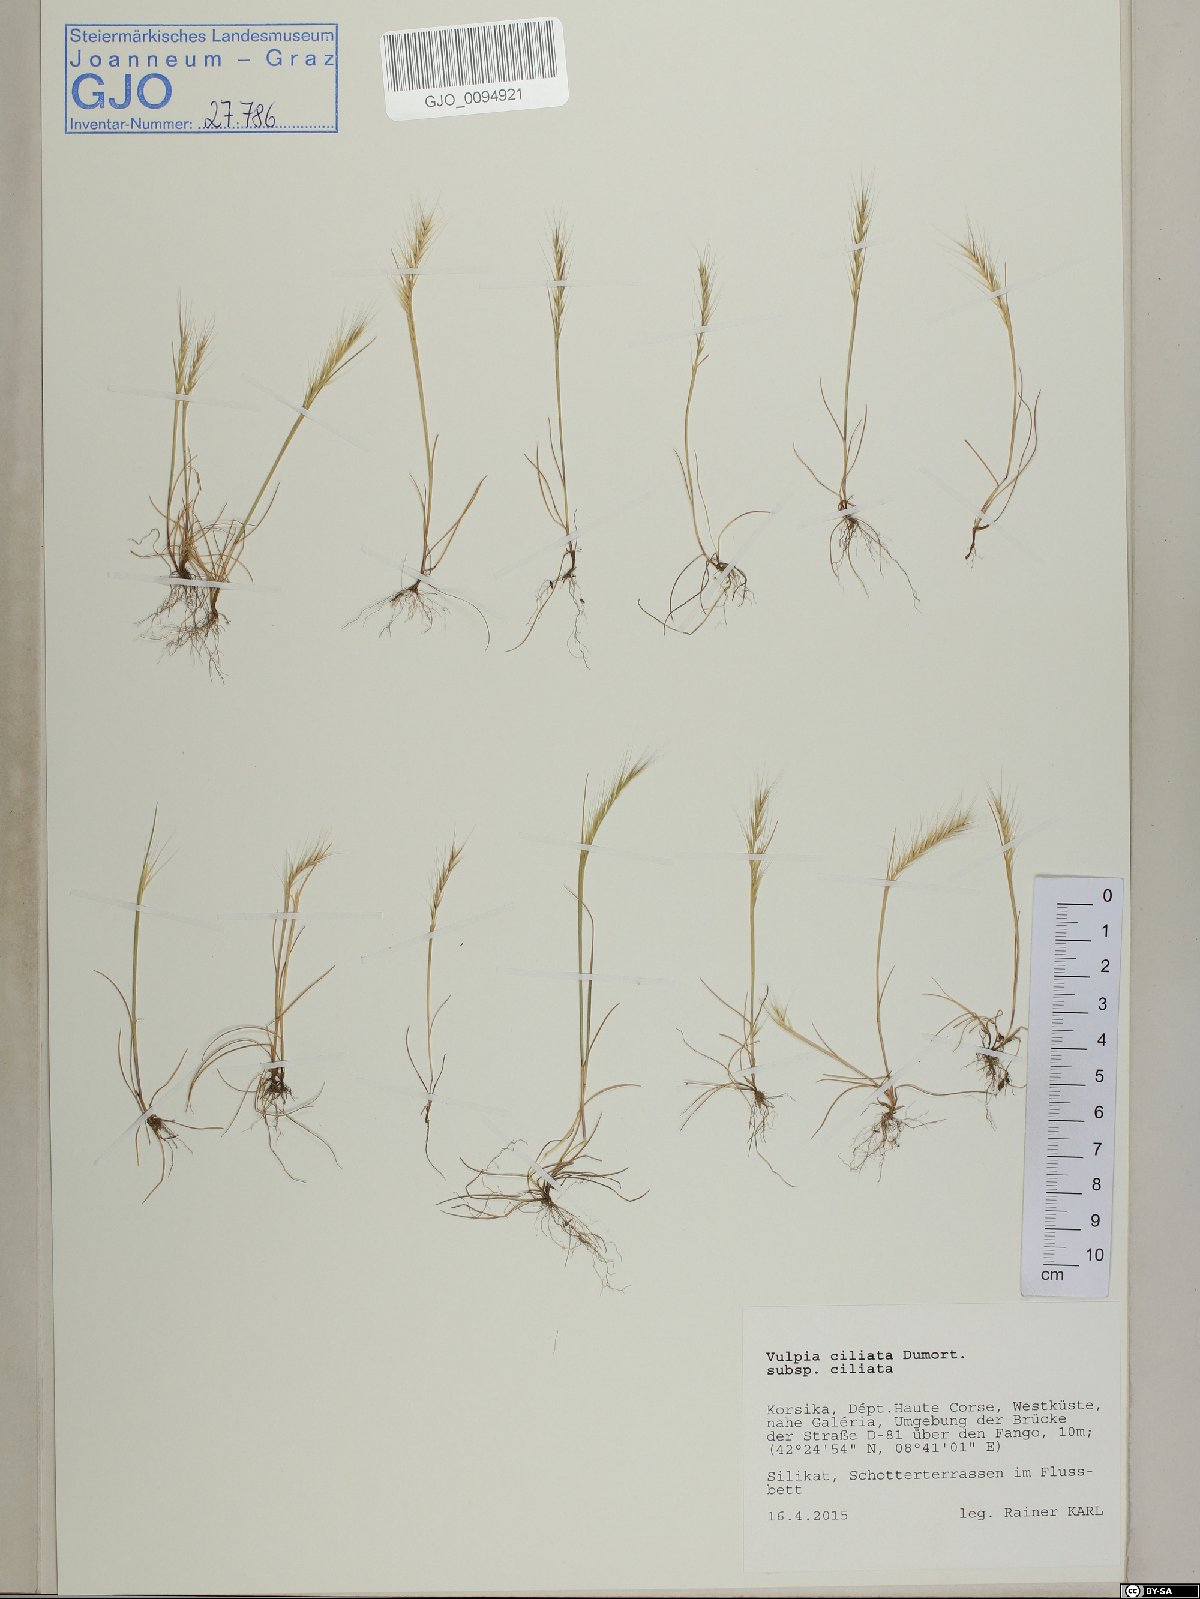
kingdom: Plantae
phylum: Tracheophyta
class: Liliopsida
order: Poales
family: Poaceae
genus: Festuca
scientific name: Festuca ambigua
